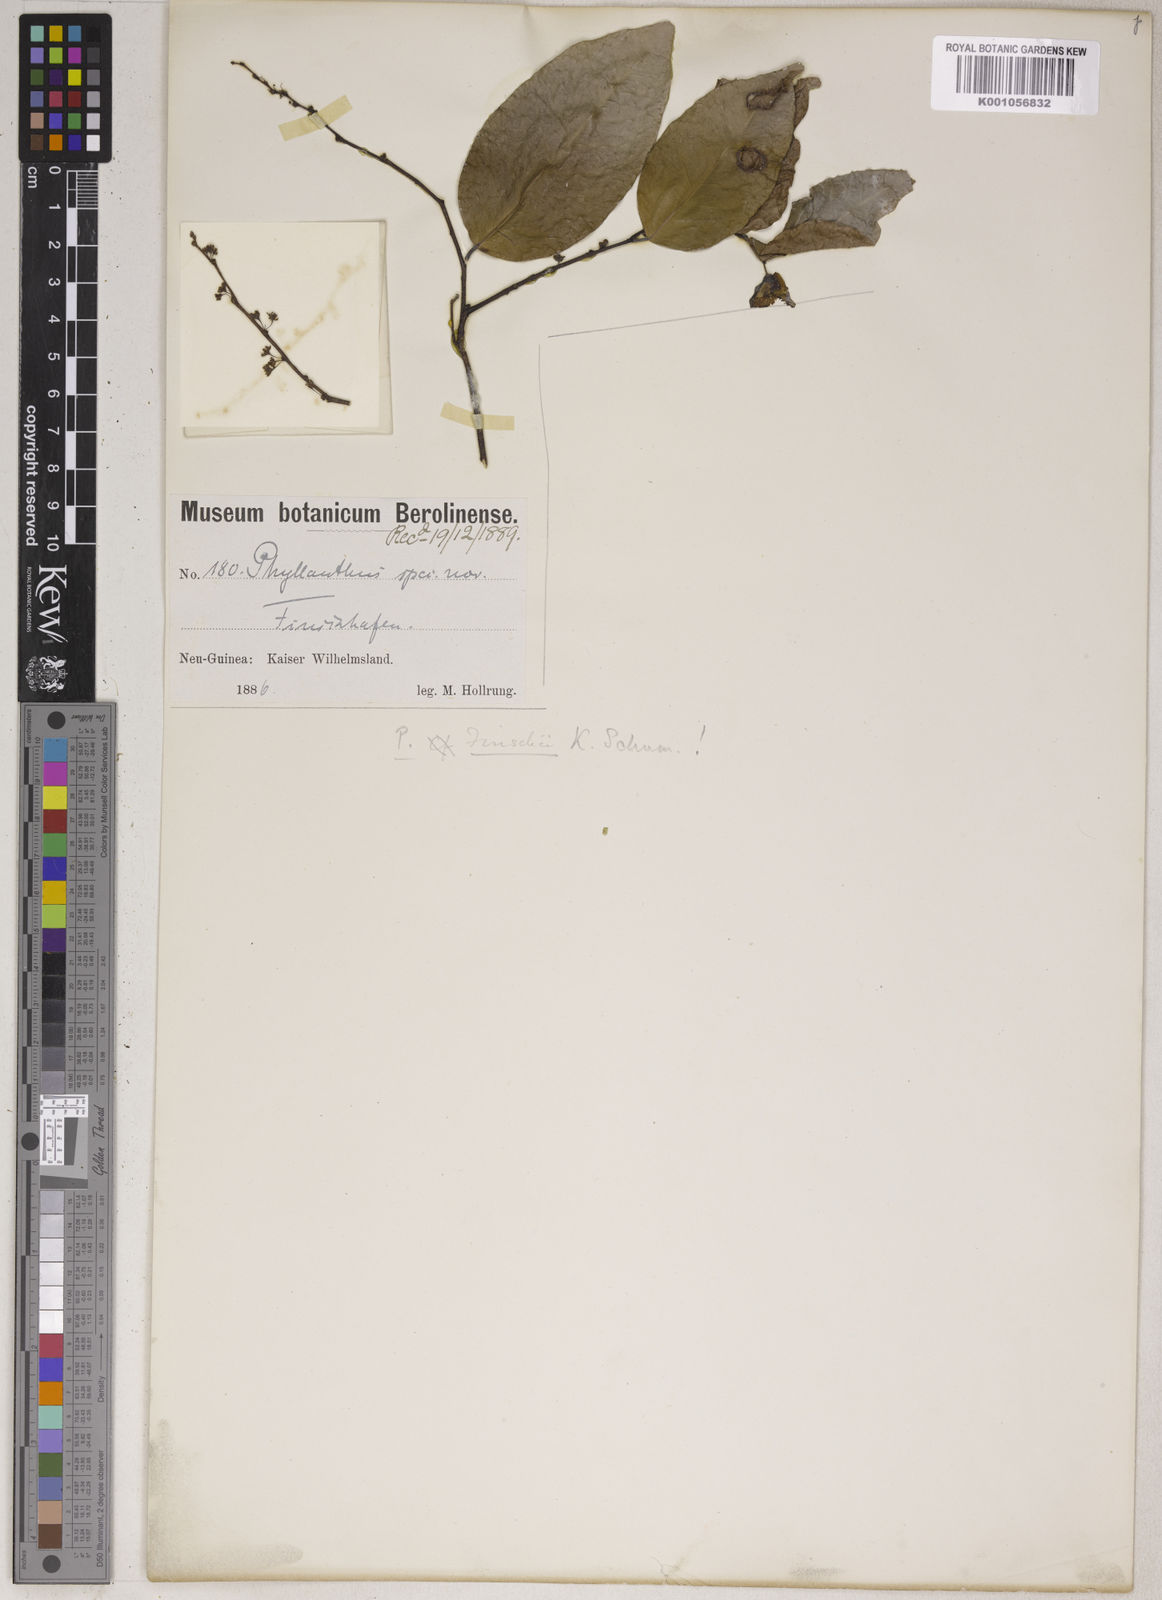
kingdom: Plantae
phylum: Tracheophyta
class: Magnoliopsida
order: Malpighiales
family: Phyllanthaceae
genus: Phyllanthus
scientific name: Phyllanthus finschii
